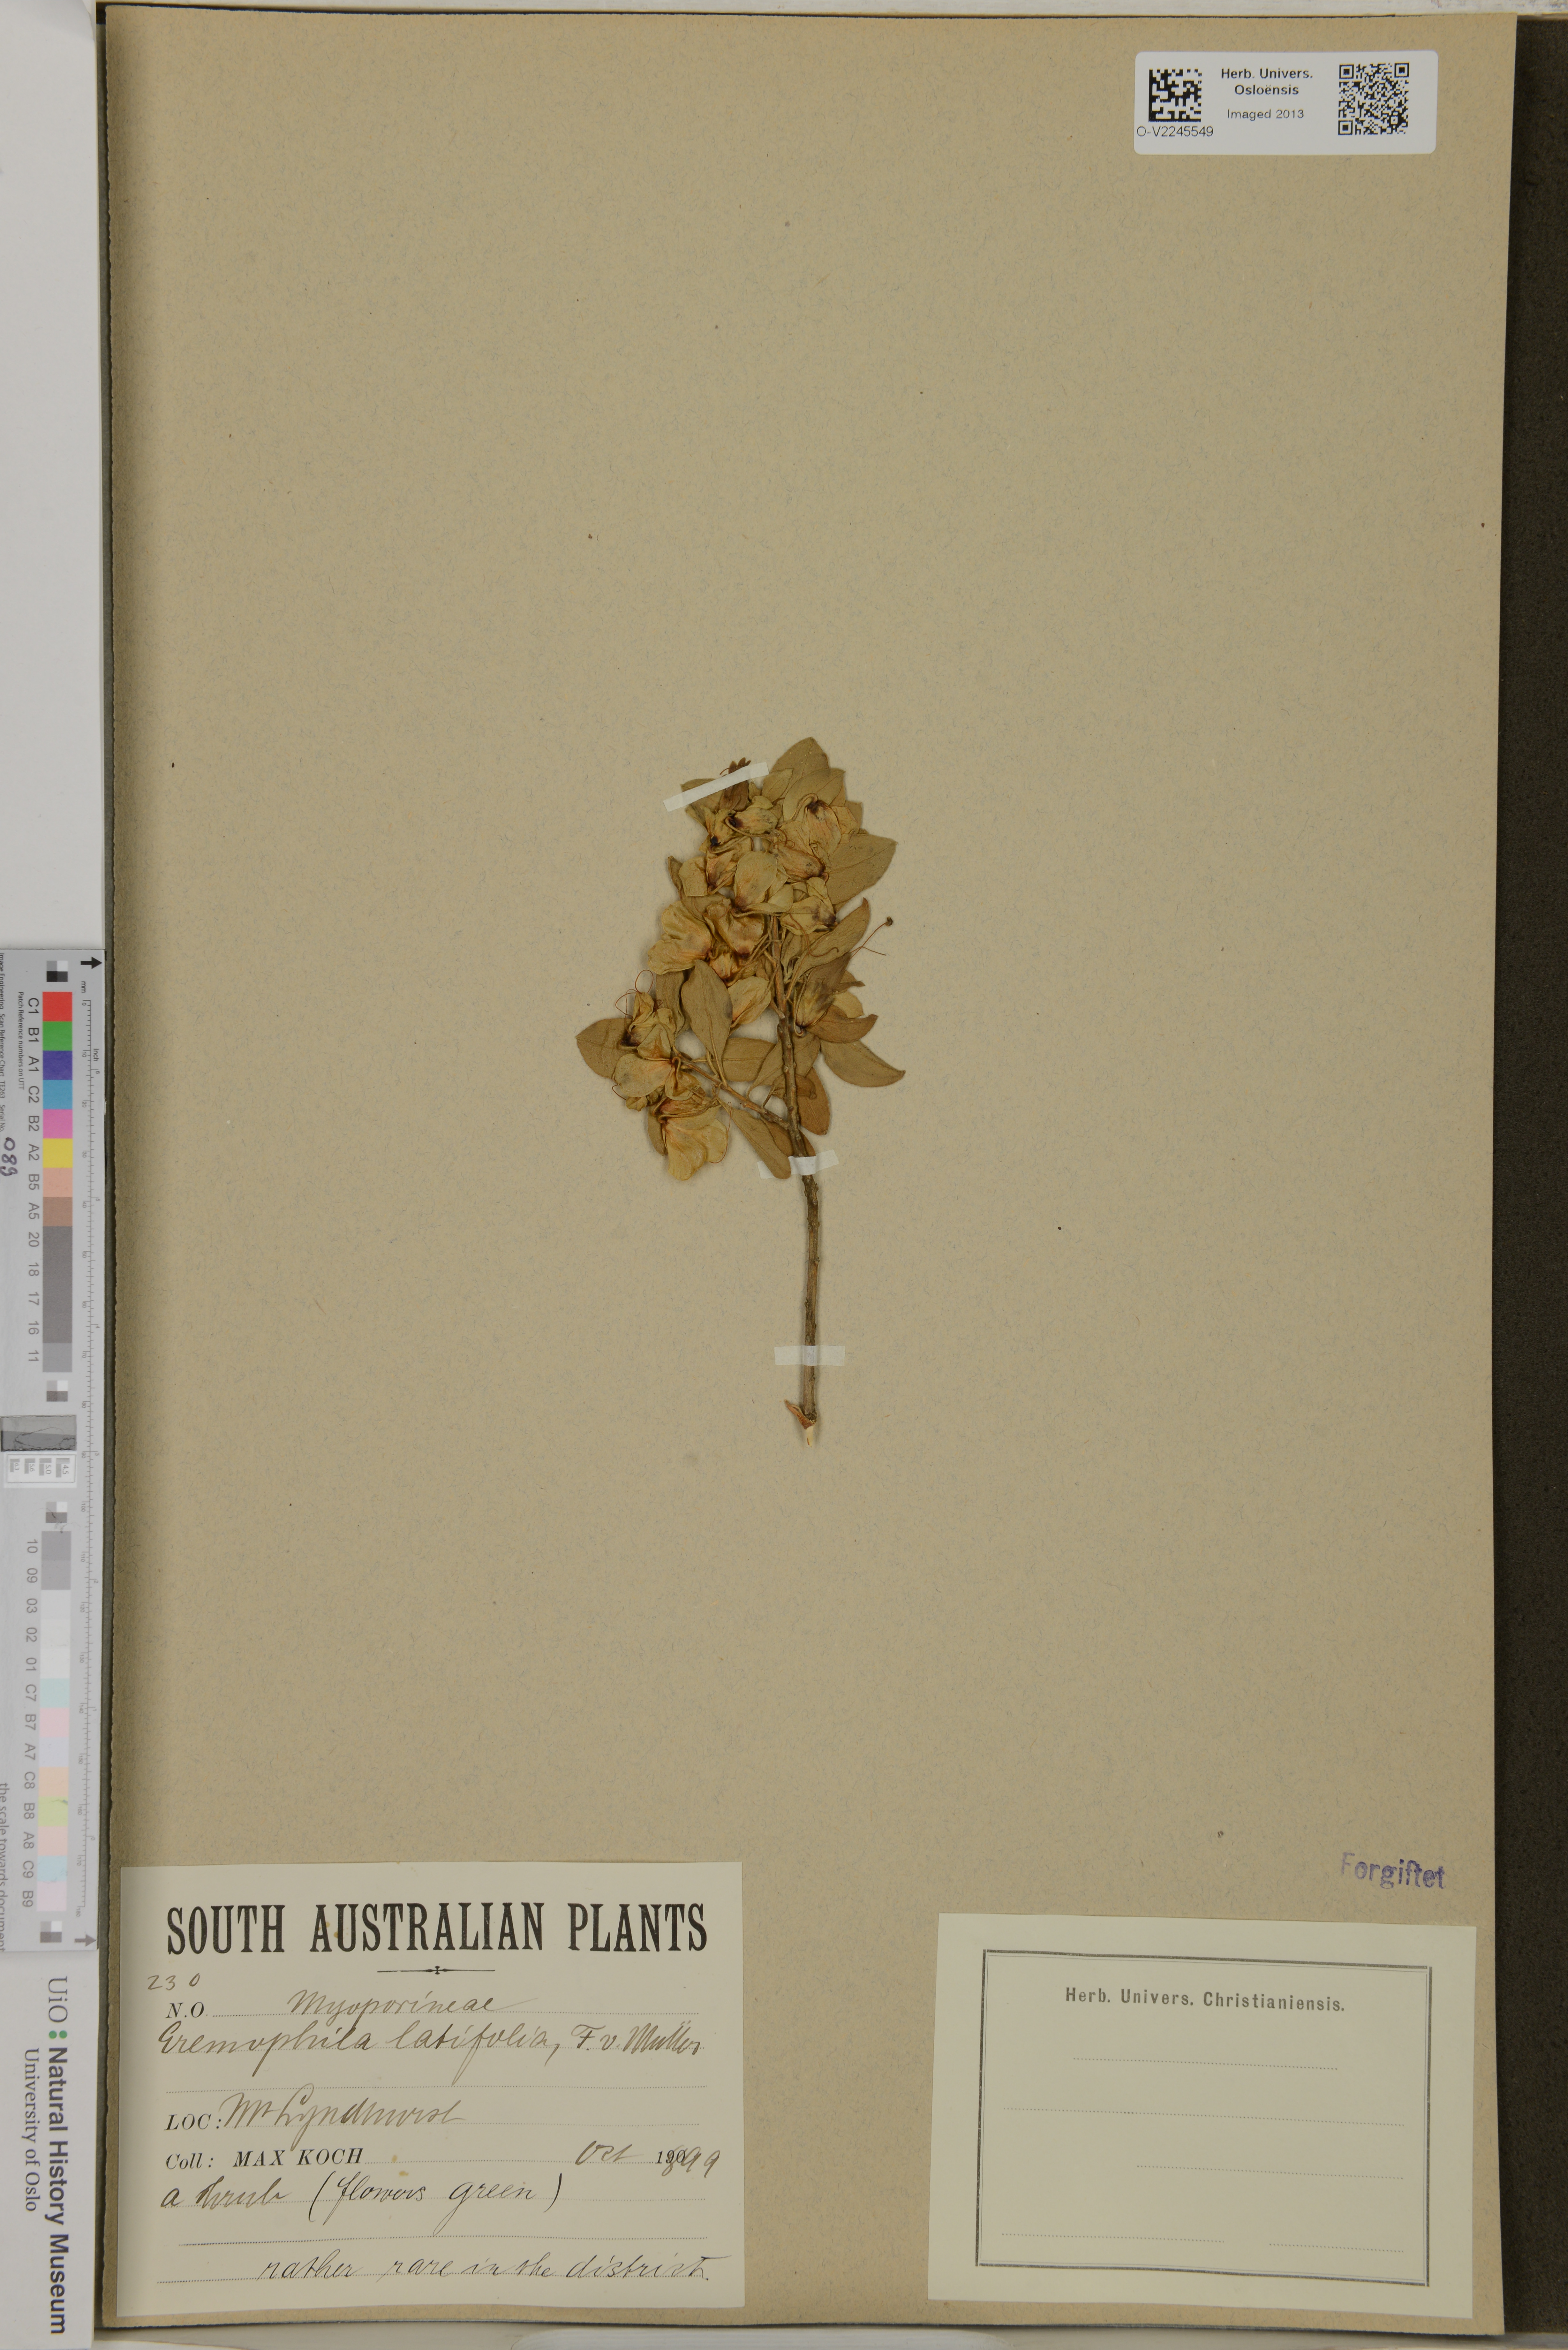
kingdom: Plantae
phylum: Tracheophyta
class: Magnoliopsida
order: Lamiales
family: Scrophulariaceae
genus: Eremophila
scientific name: Eremophila serrulata
